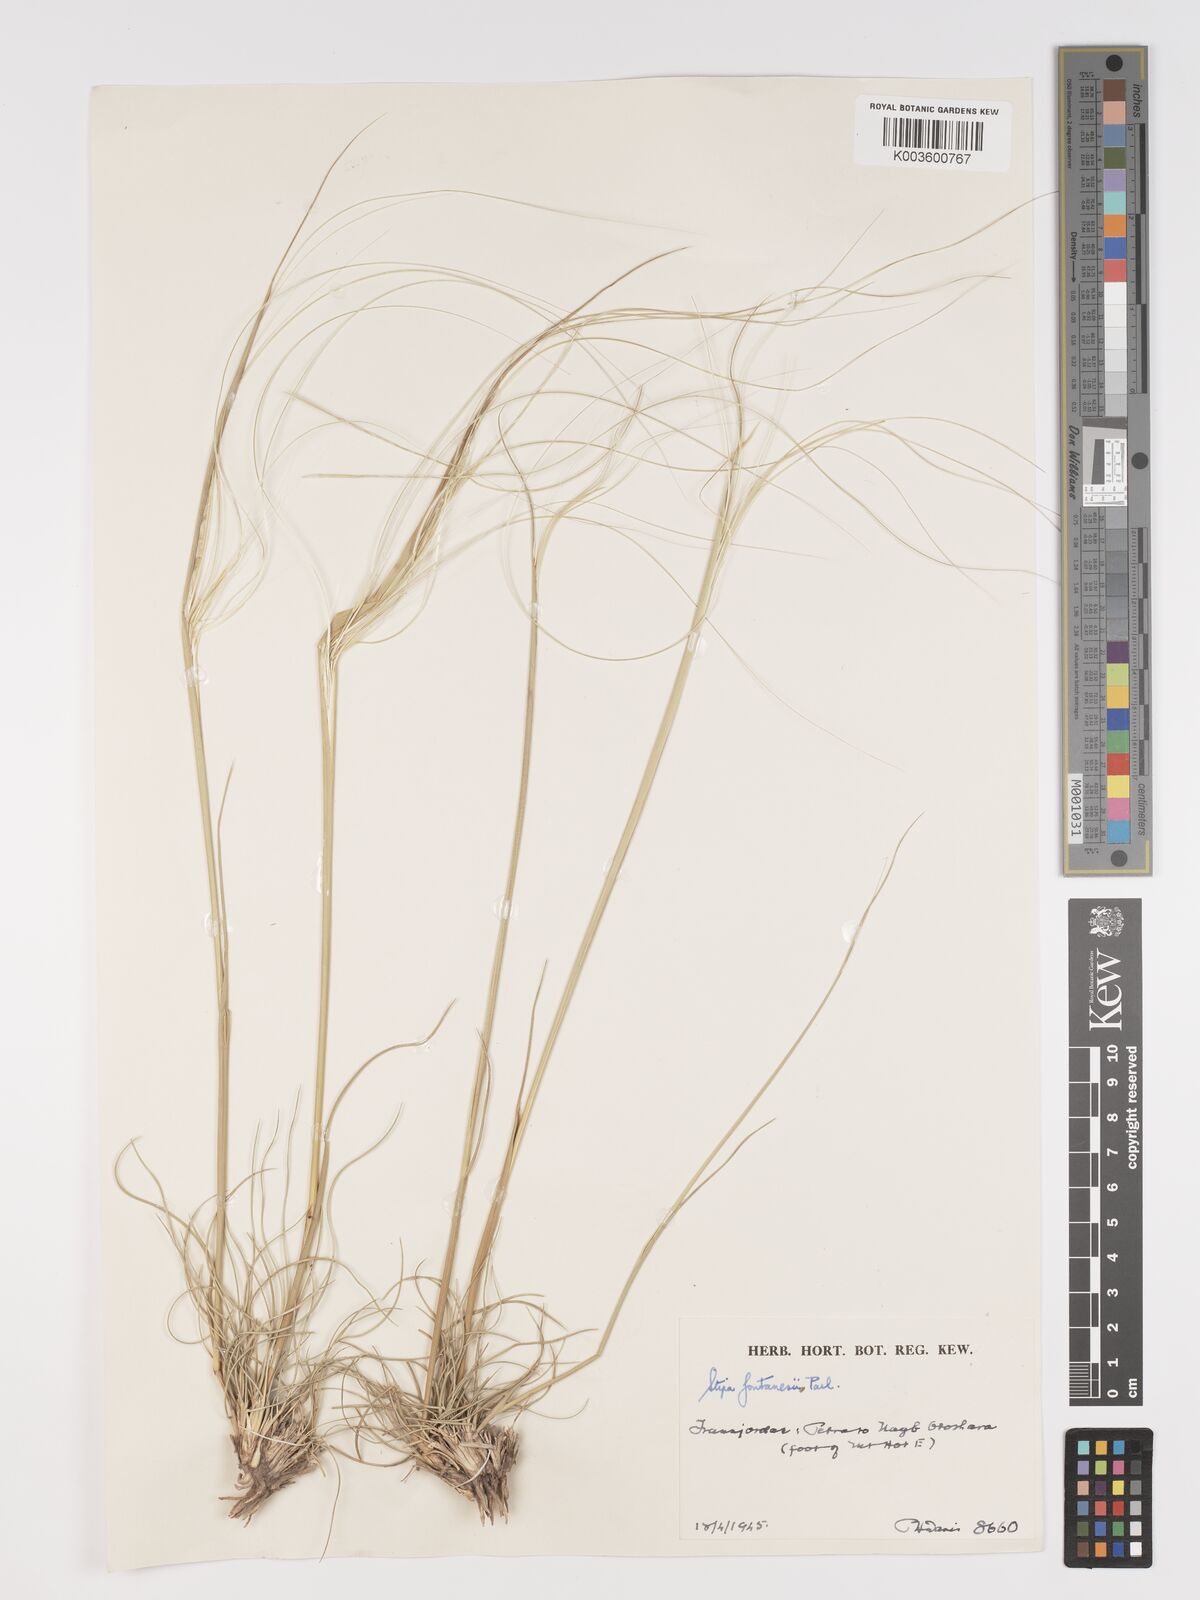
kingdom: Plantae
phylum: Tracheophyta
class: Liliopsida
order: Poales
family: Poaceae
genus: Stipa
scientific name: Stipa lagascae
